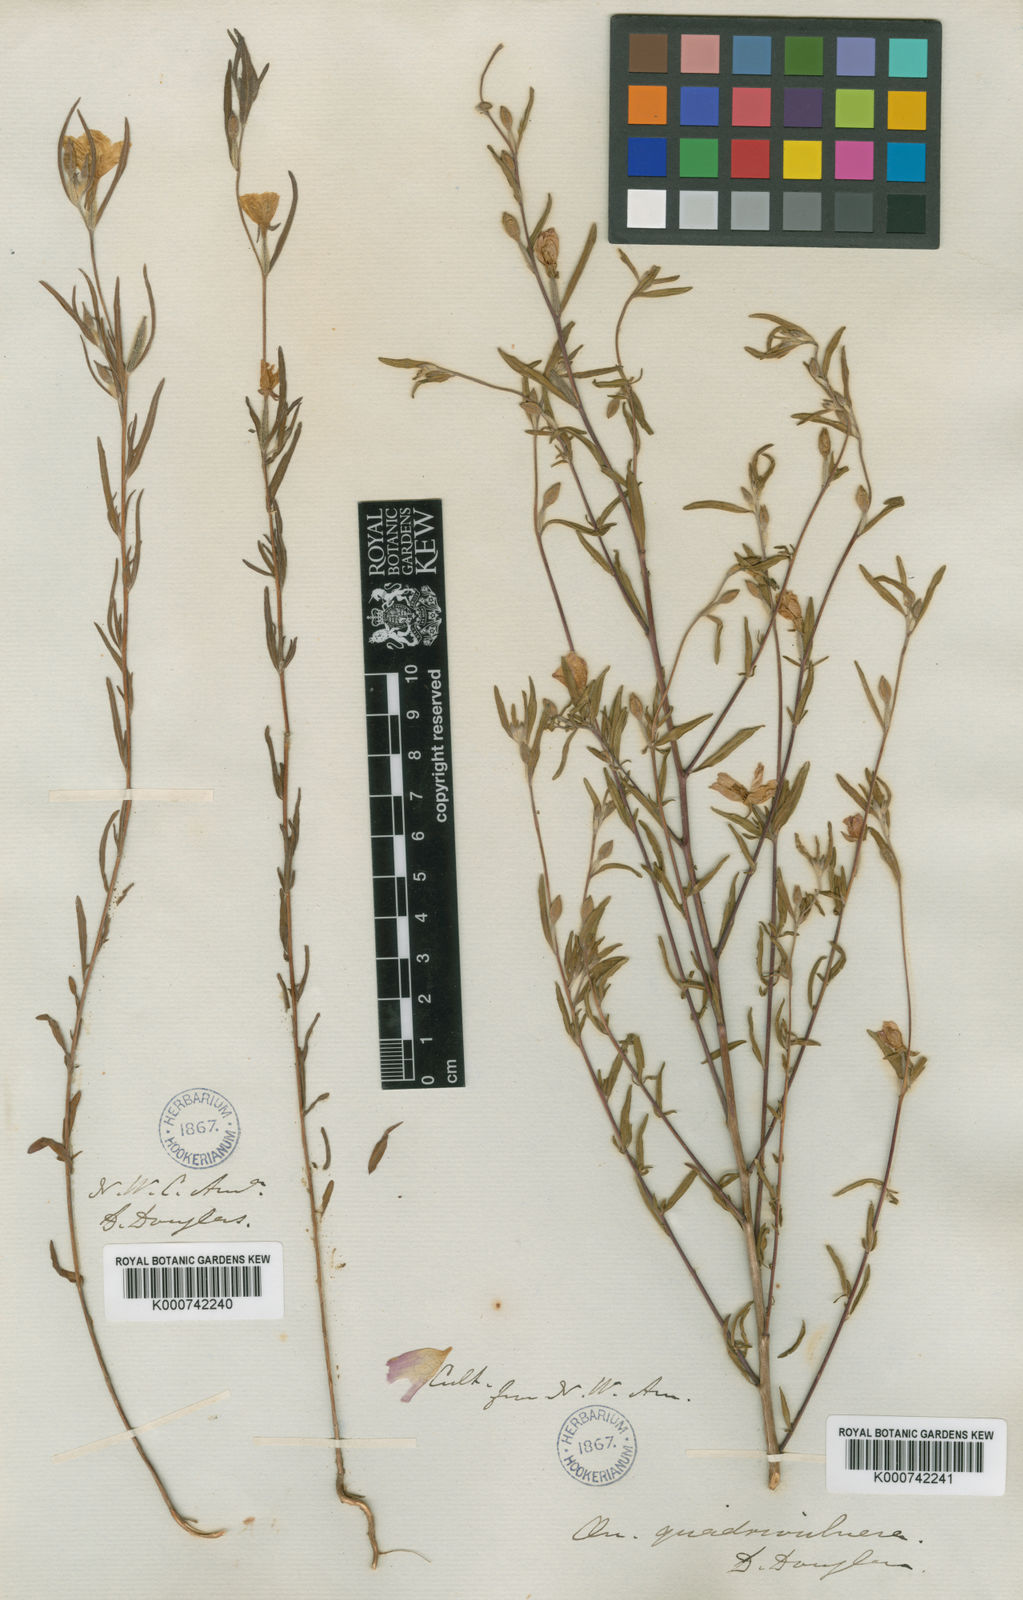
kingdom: Plantae
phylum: Tracheophyta
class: Magnoliopsida
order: Myrtales
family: Onagraceae
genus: Clarkia
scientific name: Clarkia purpurea
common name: Purple clarkia
